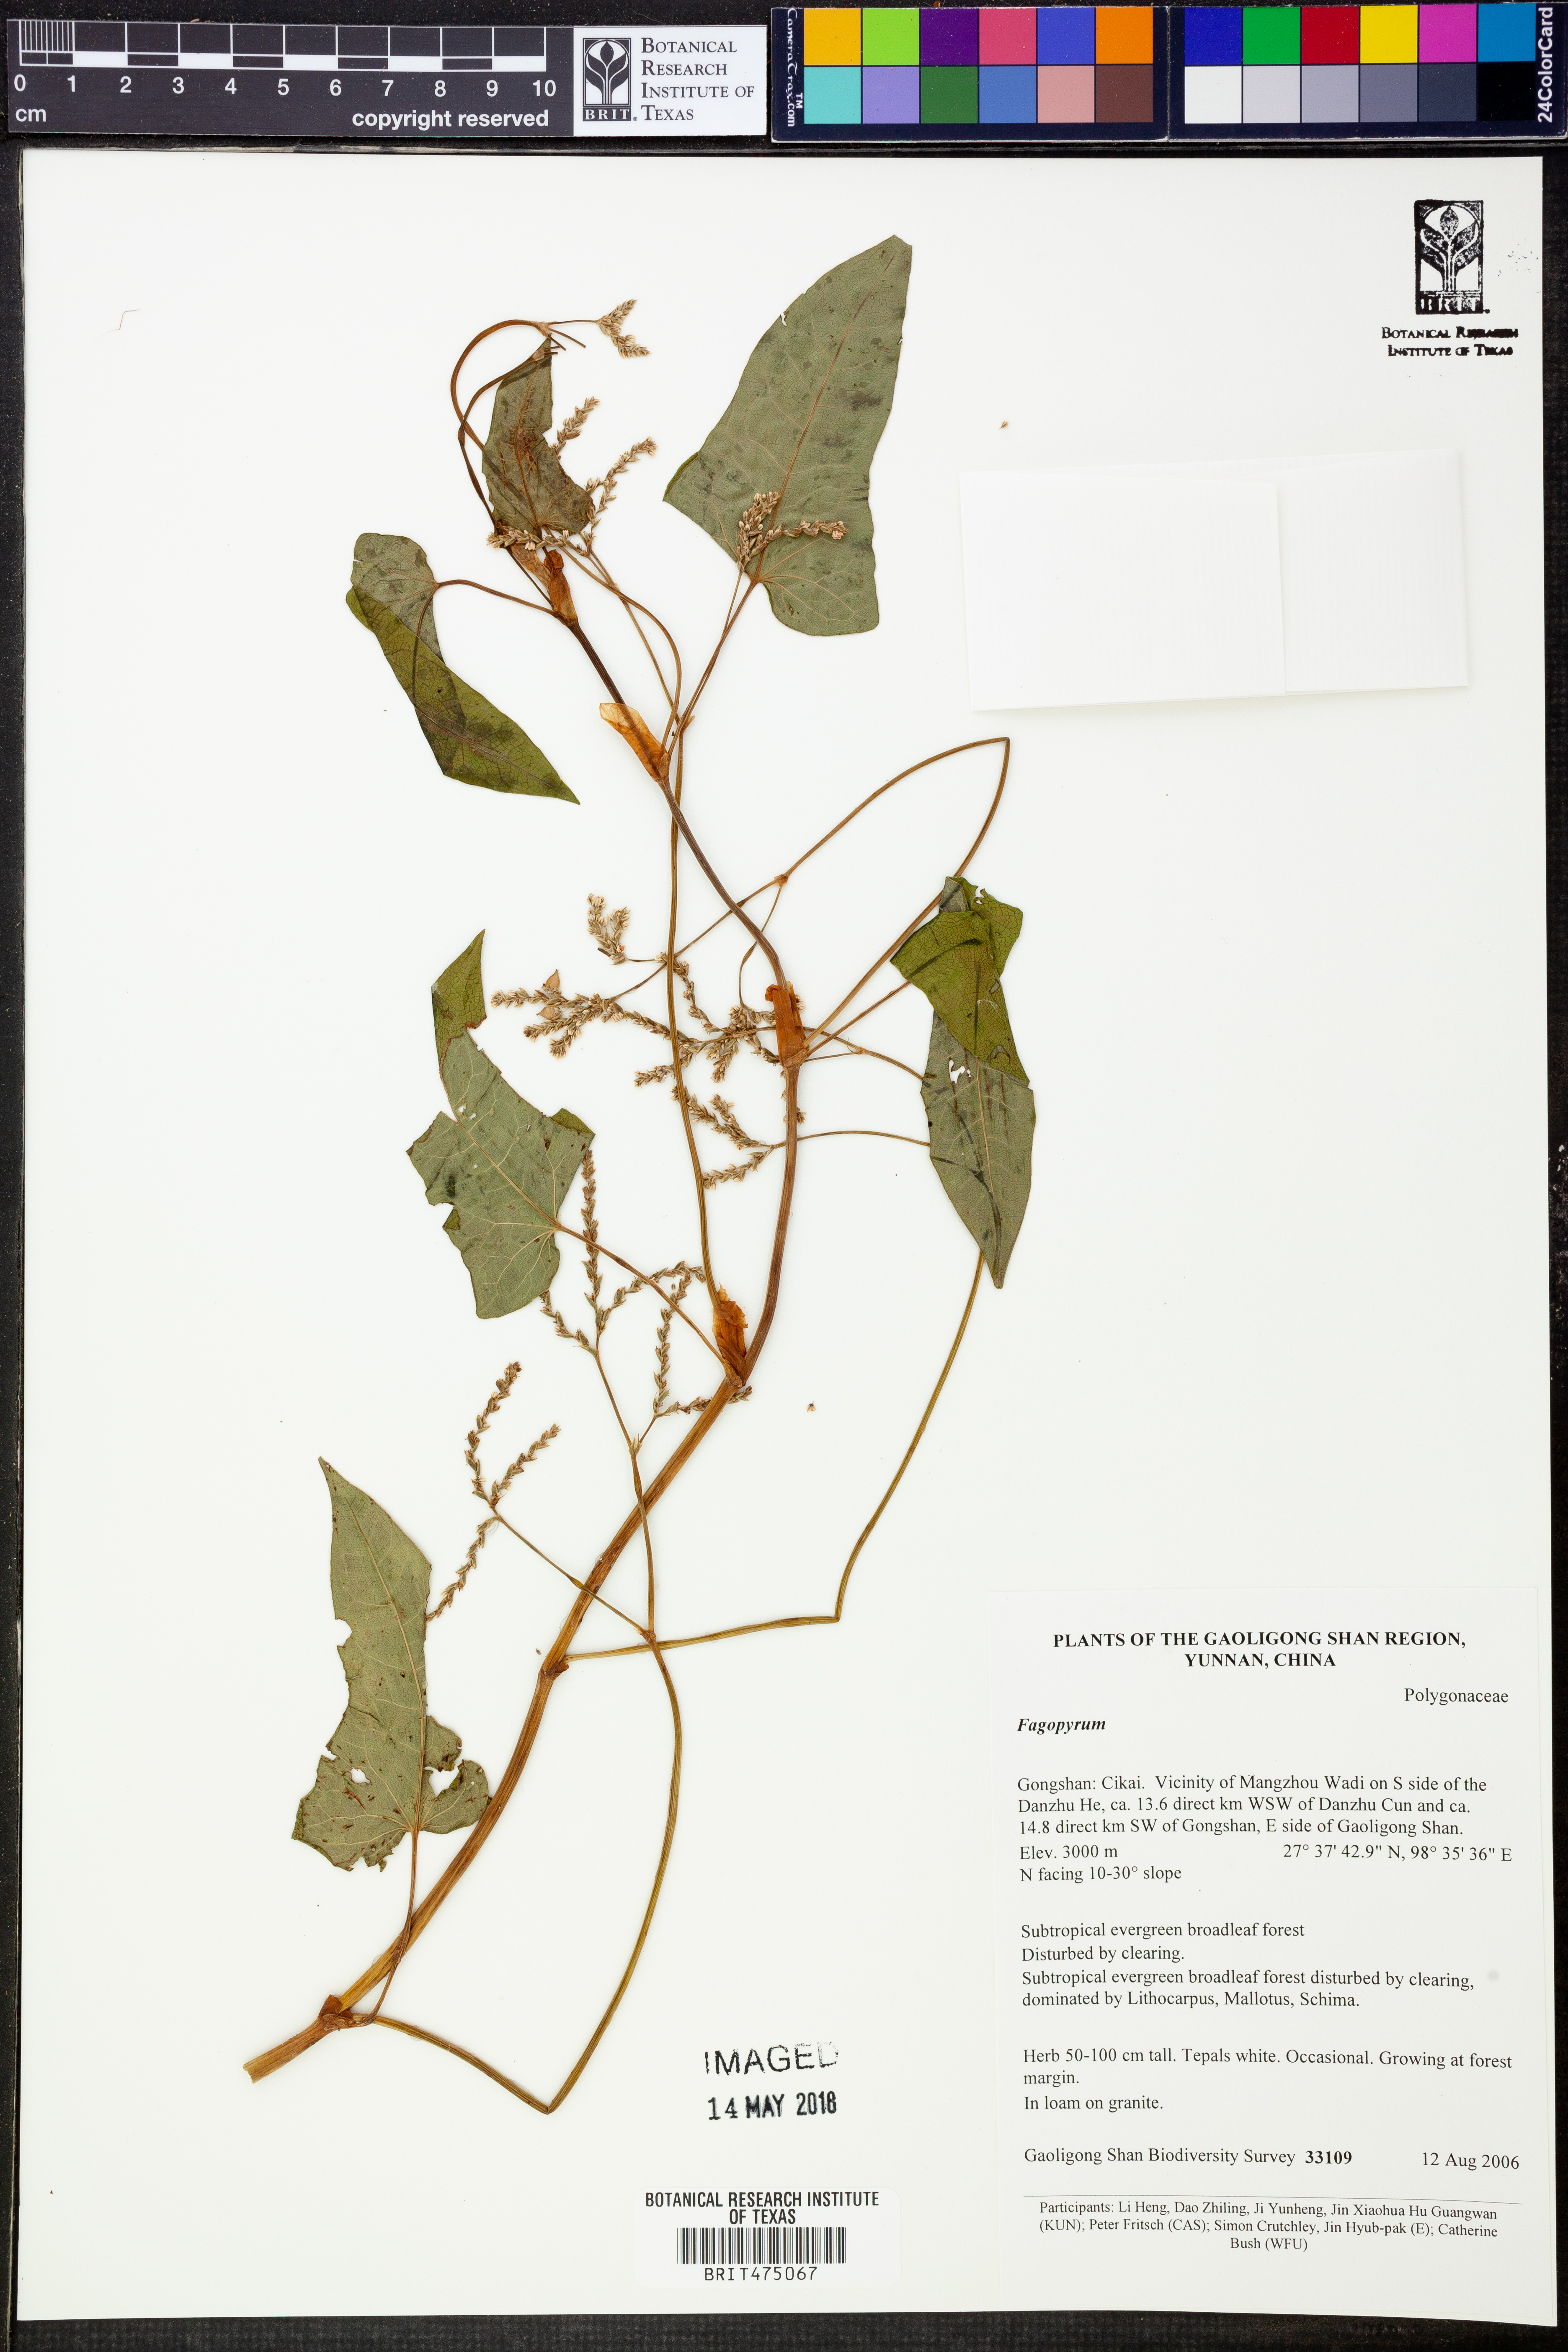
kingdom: Plantae
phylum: Tracheophyta
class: Magnoliopsida
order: Caryophyllales
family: Polygonaceae
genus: Fagopyrum
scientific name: Fagopyrum
